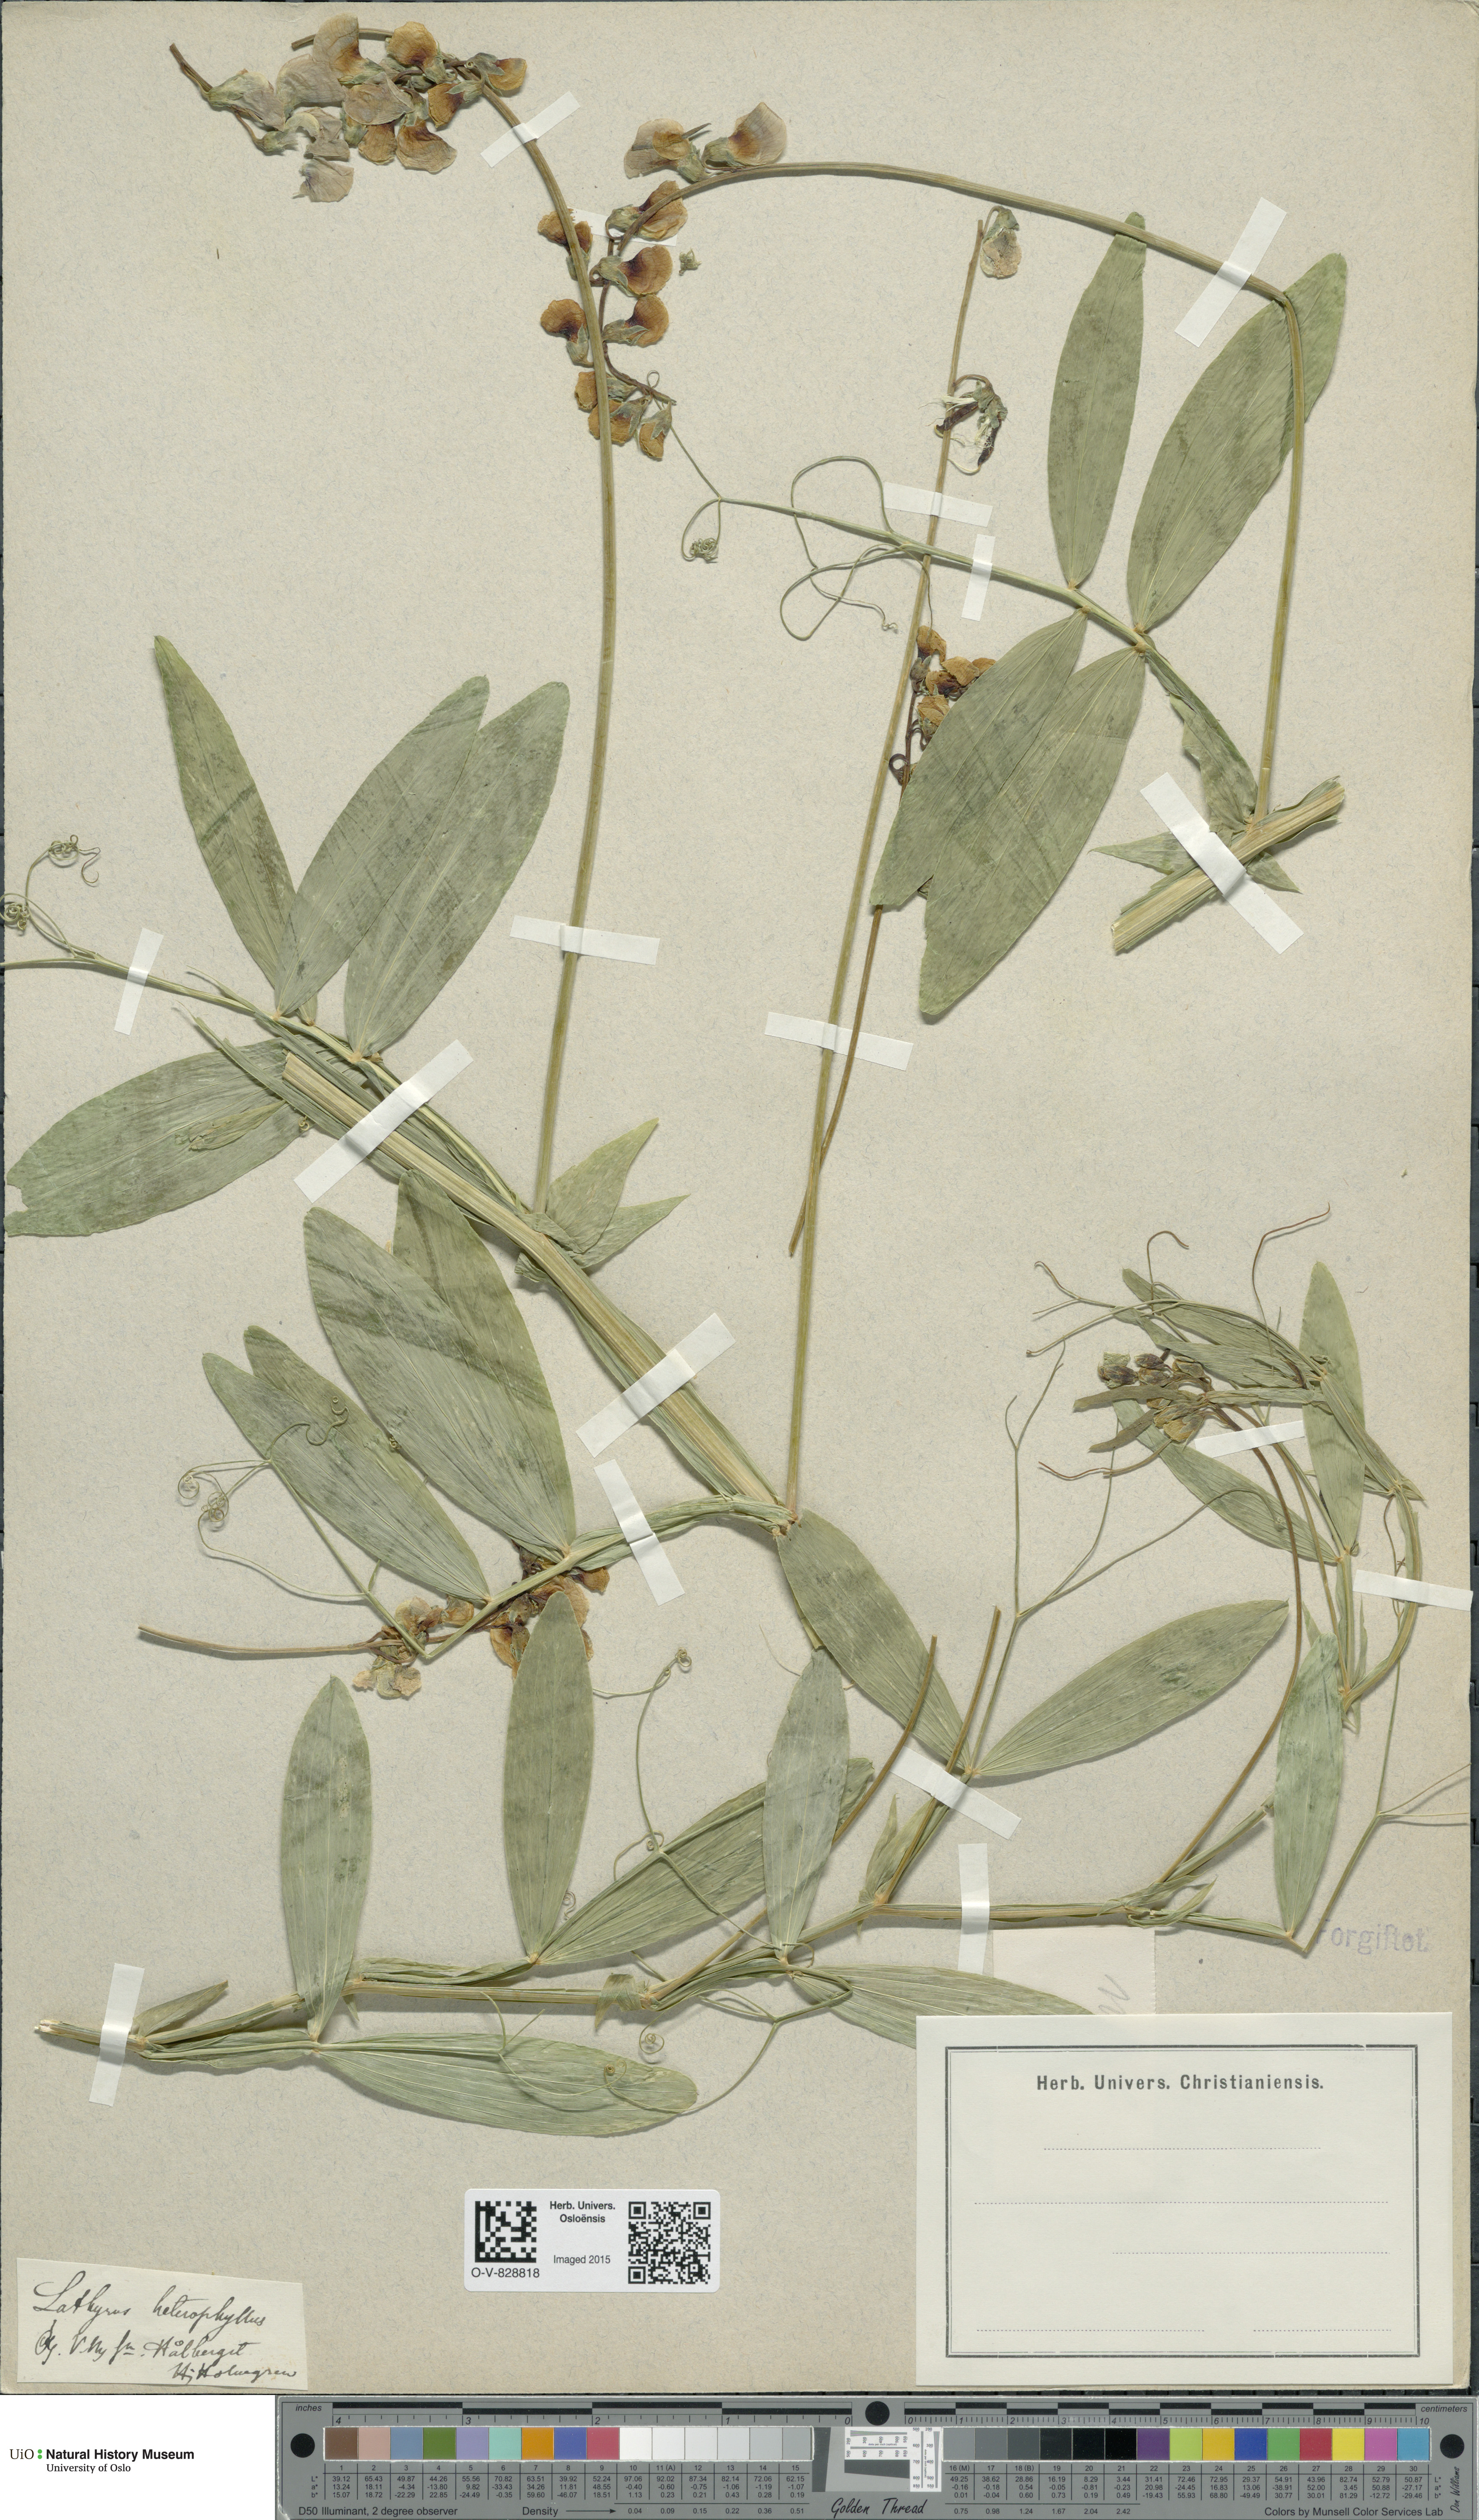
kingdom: Plantae
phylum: Tracheophyta
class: Magnoliopsida
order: Fabales
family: Fabaceae
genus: Lathyrus
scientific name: Lathyrus heterophyllus
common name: Norfolk everlasting-pea
